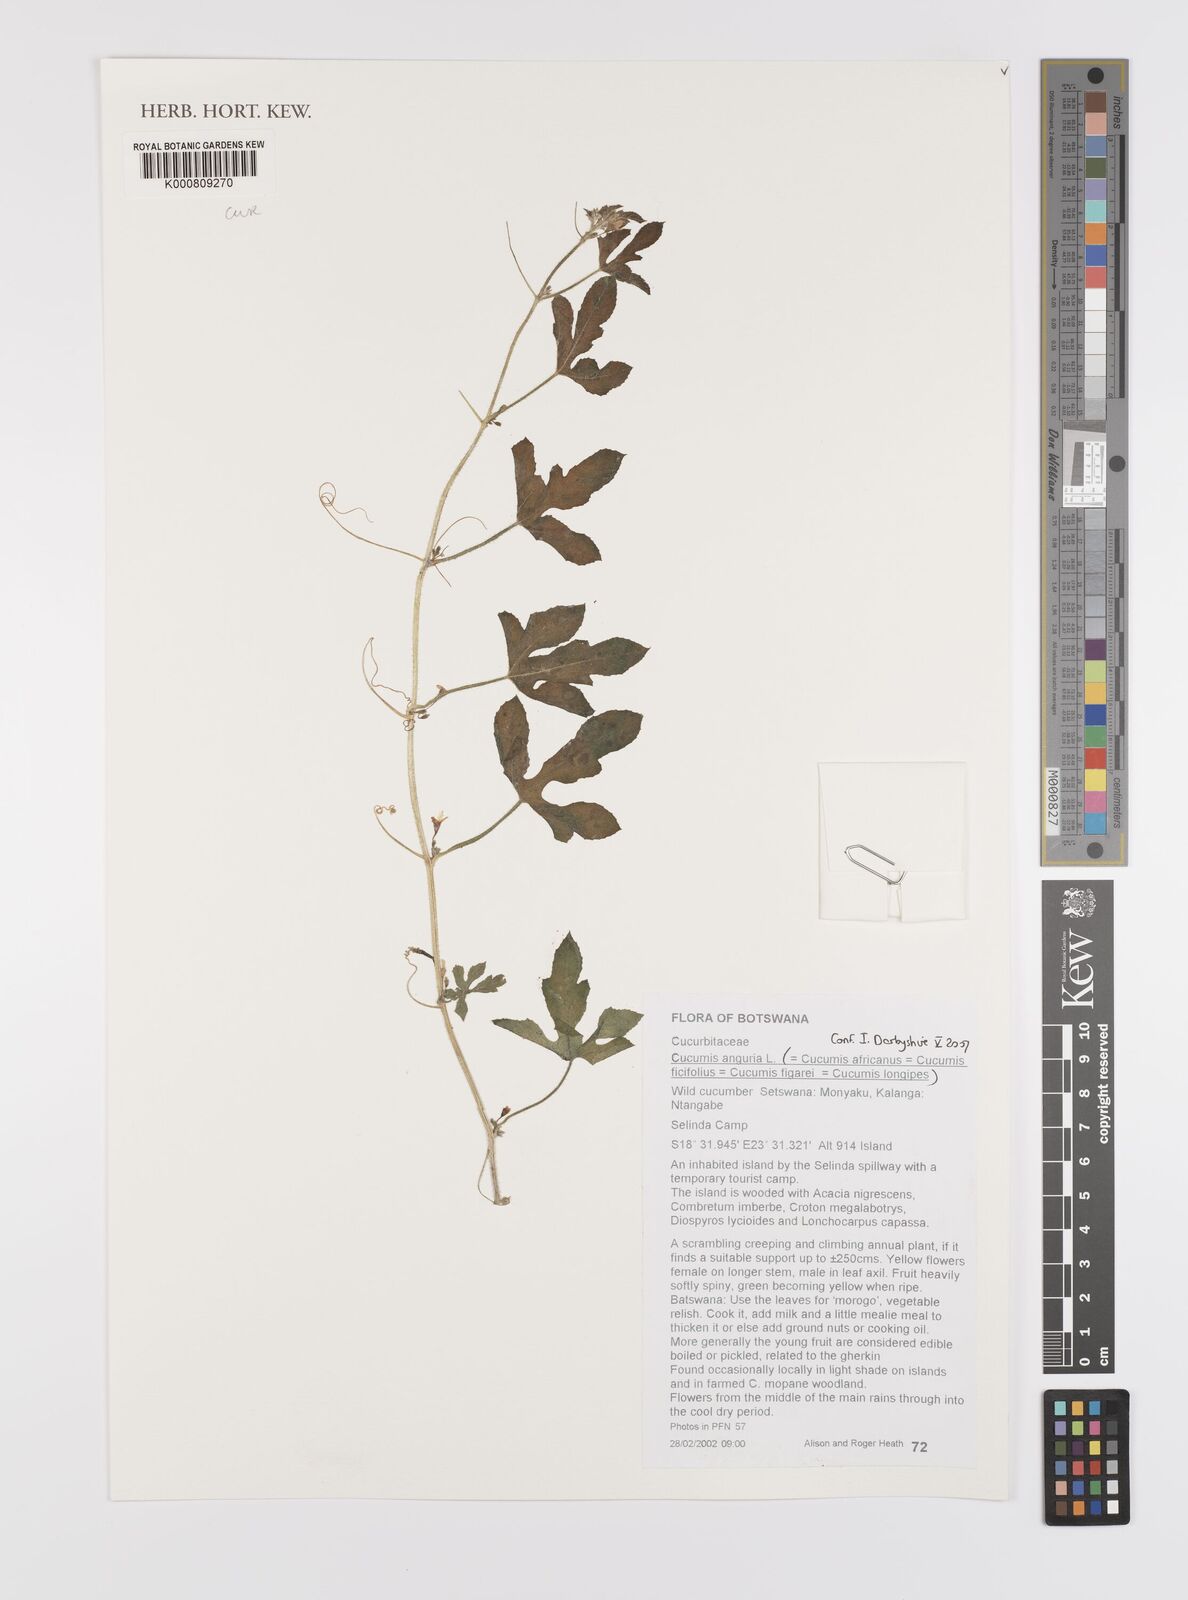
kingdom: Plantae
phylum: Tracheophyta
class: Magnoliopsida
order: Cucurbitales
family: Cucurbitaceae
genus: Cucumis
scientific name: Cucumis anguria
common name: West indian gherkin
